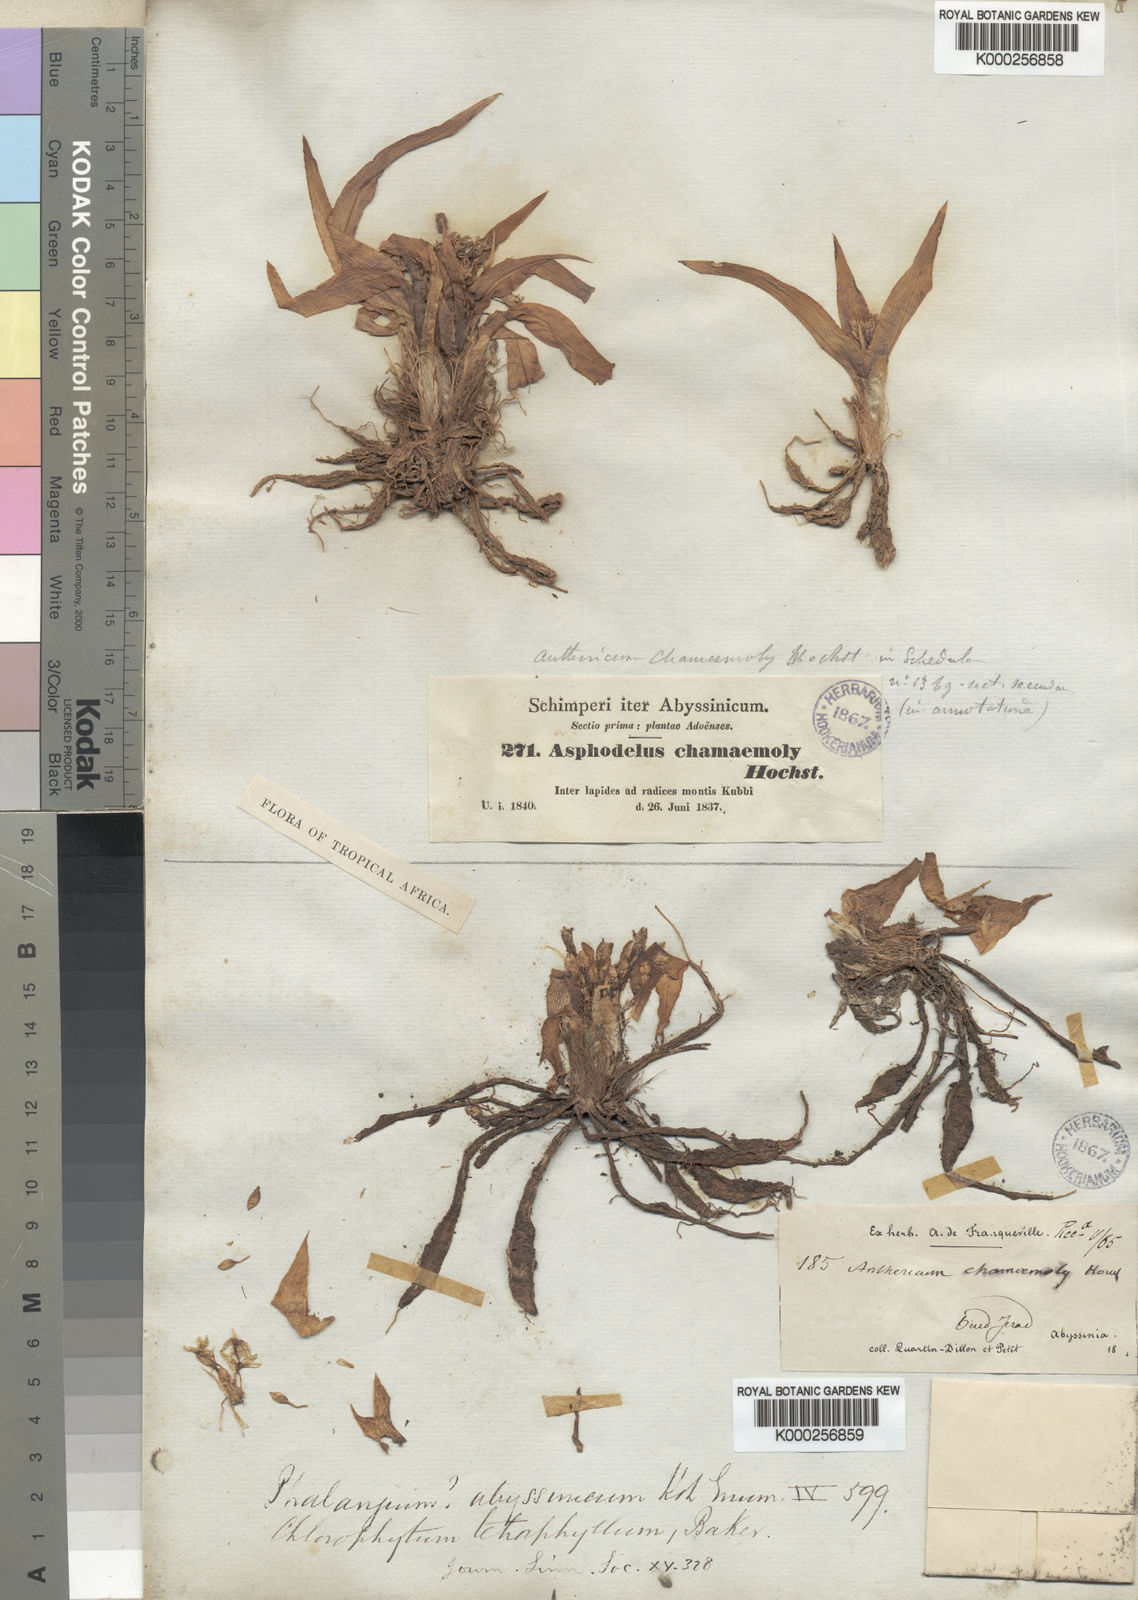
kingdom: Plantae
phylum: Tracheophyta
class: Liliopsida
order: Asparagales
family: Asparagaceae
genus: Chlorophytum
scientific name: Chlorophytum tetraphyllum
